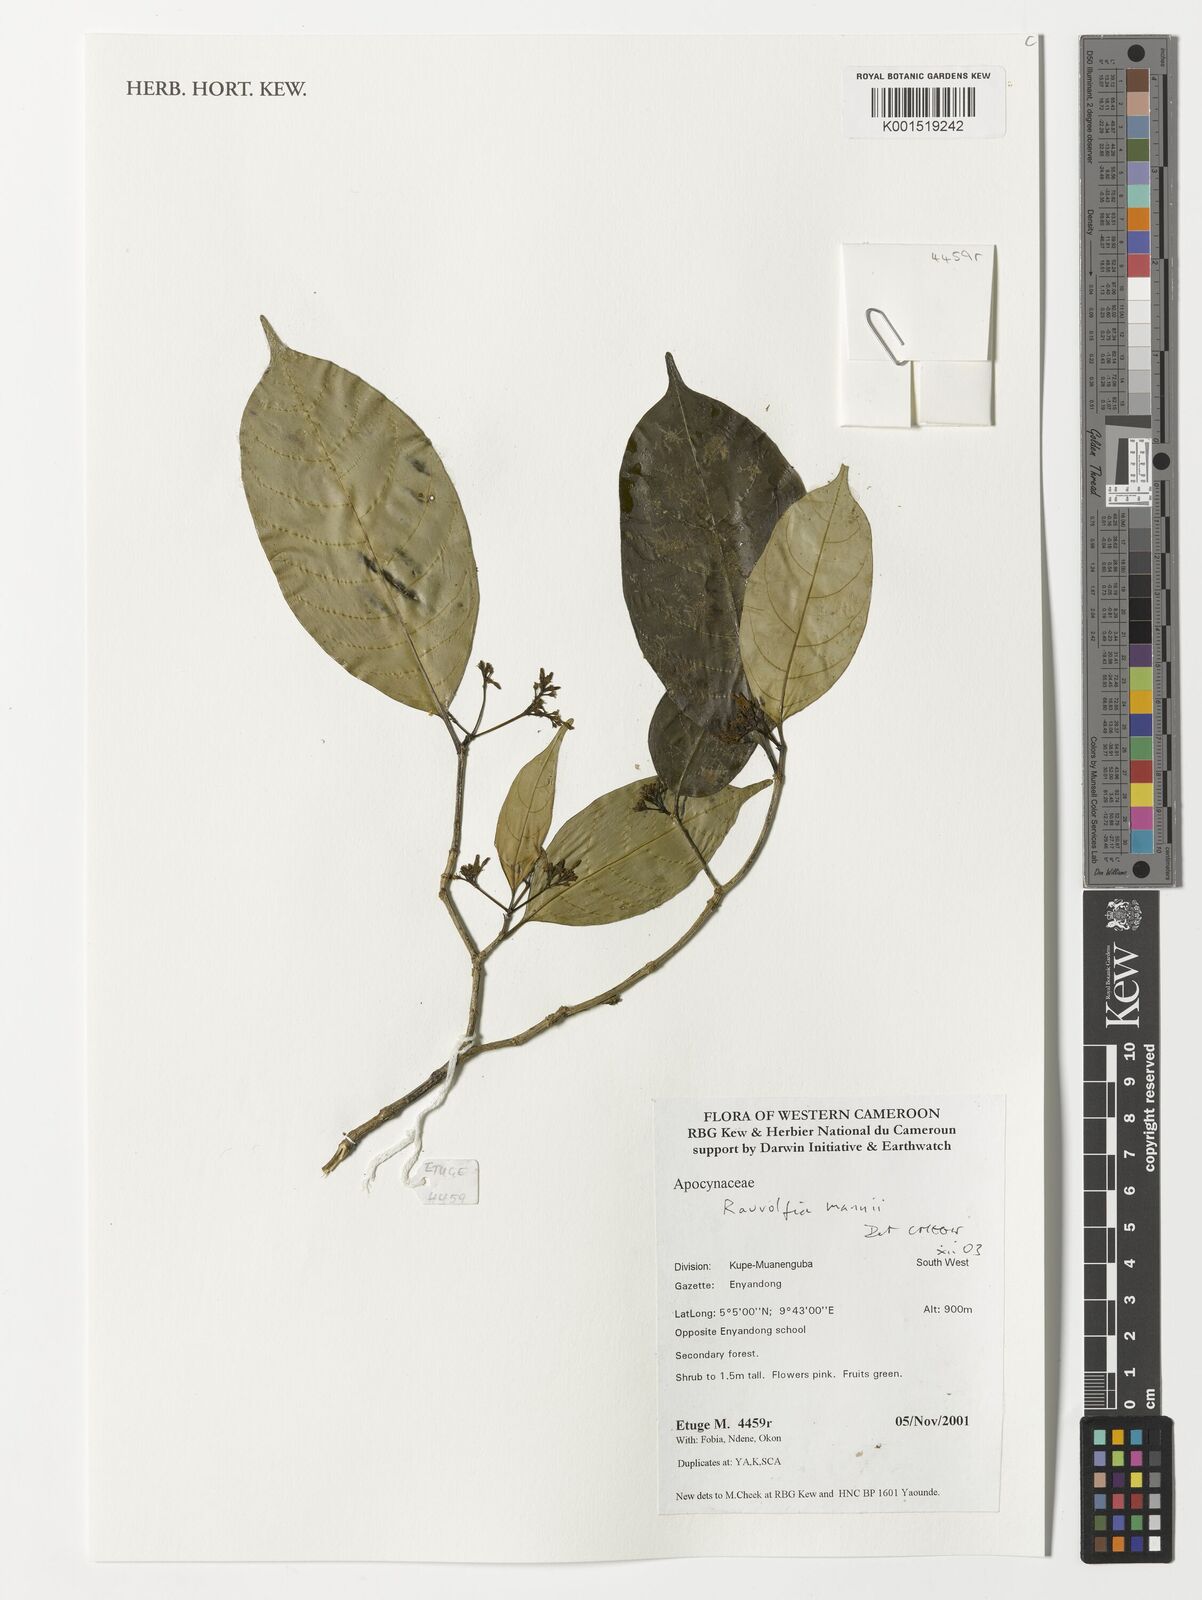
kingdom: Plantae
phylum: Tracheophyta
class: Magnoliopsida
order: Gentianales
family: Apocynaceae
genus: Rauvolfia
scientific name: Rauvolfia mannii
